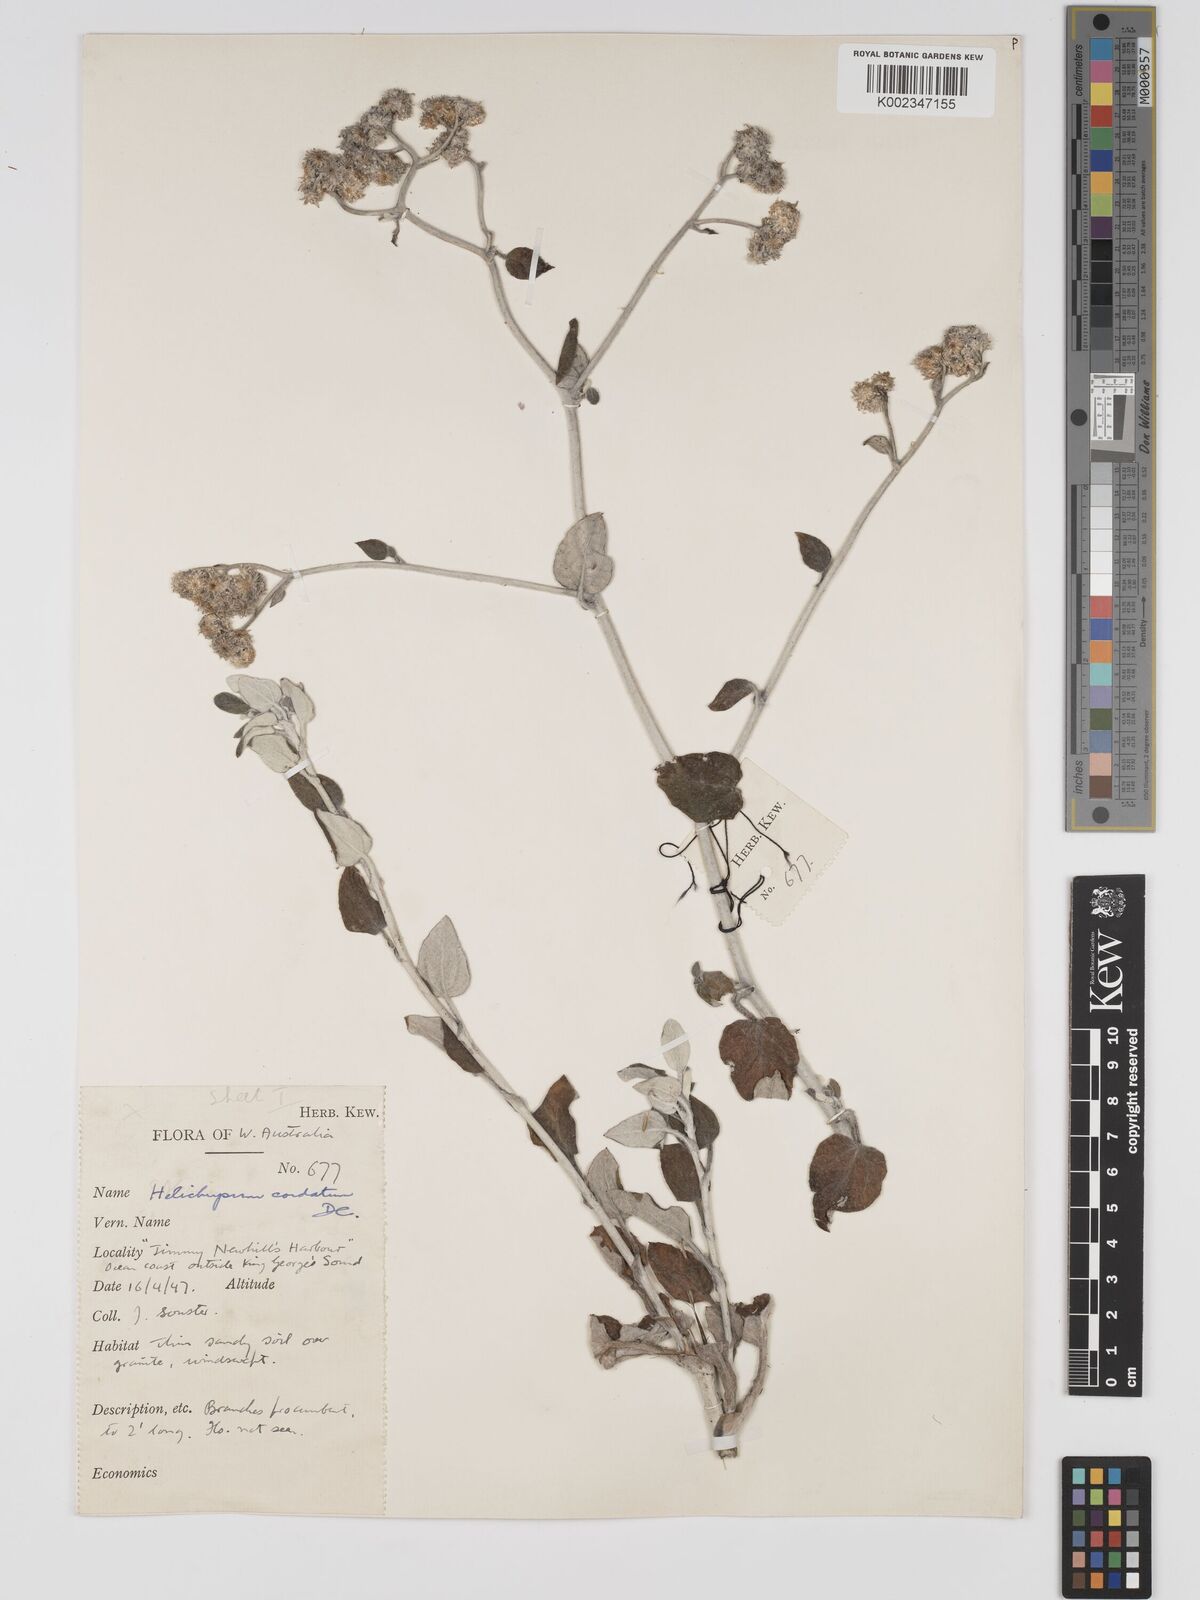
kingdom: Plantae
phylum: Tracheophyta
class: Magnoliopsida
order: Asterales
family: Asteraceae
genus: Ozothamnus
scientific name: Ozothamnus
